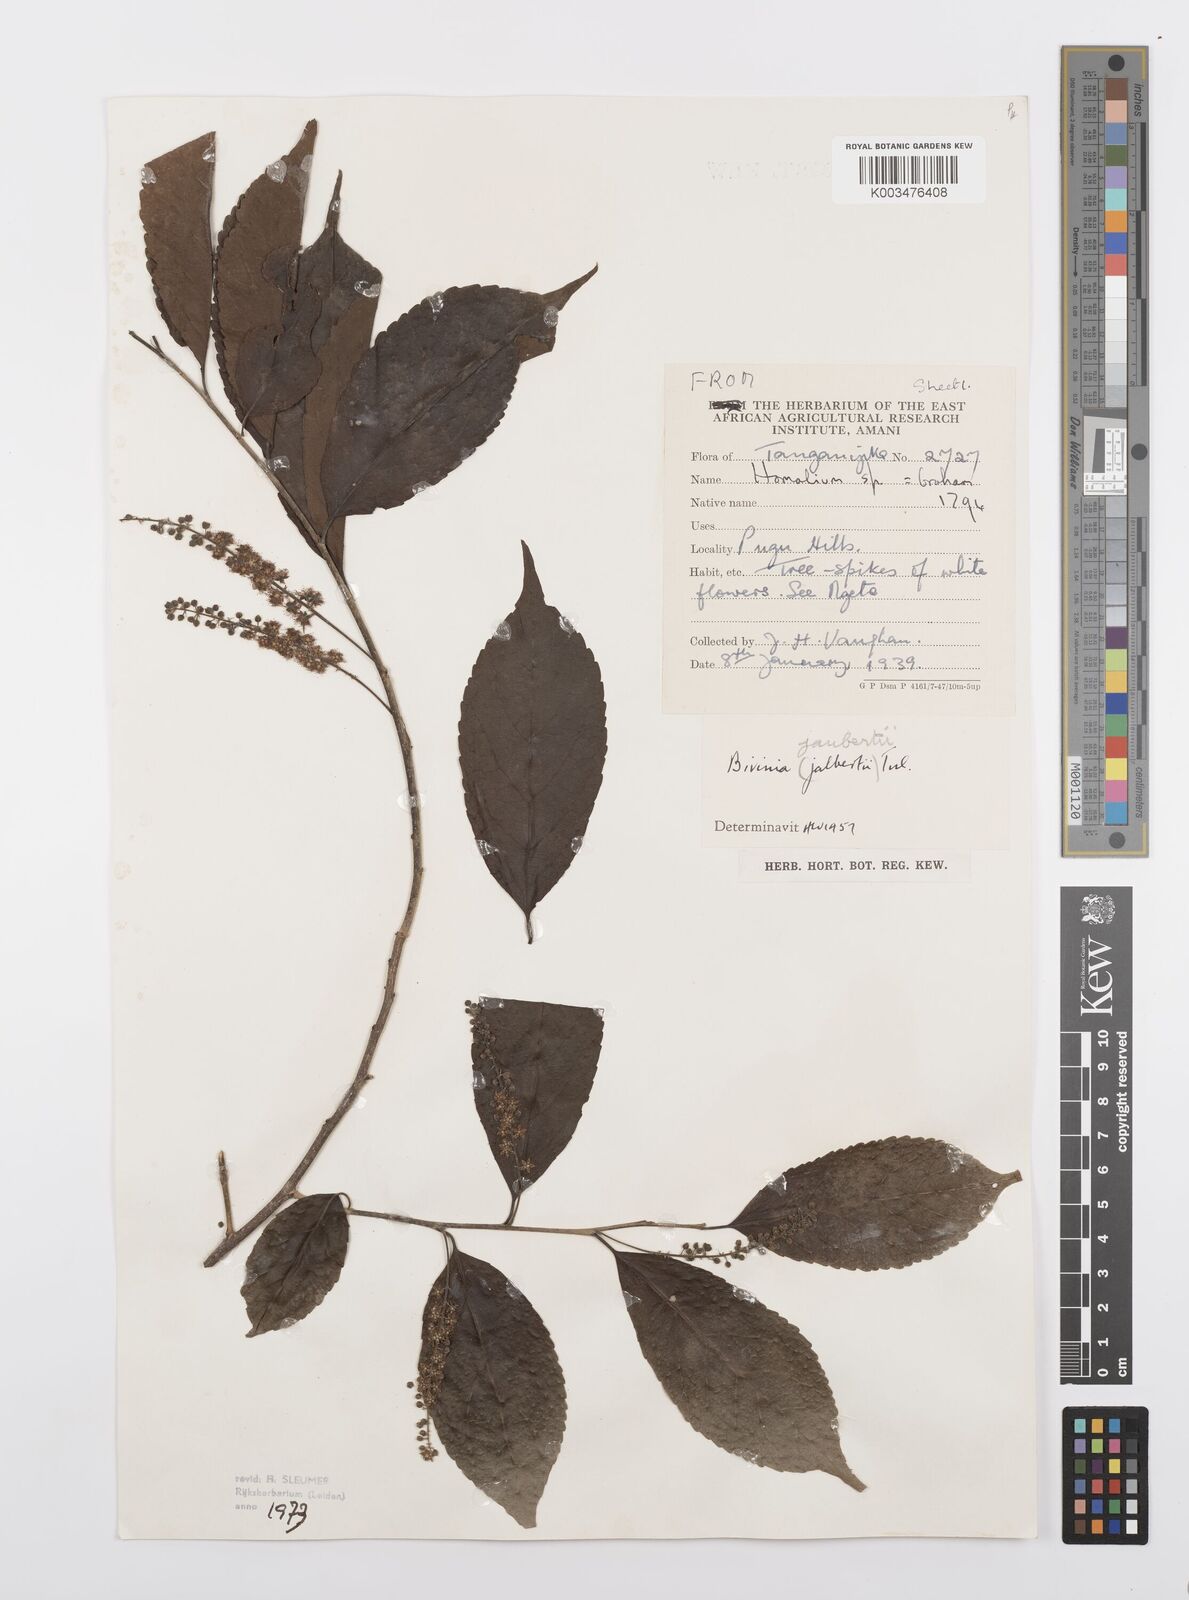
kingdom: Plantae
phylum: Tracheophyta
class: Magnoliopsida
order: Malpighiales
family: Salicaceae
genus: Bivinia
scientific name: Bivinia jalbertii
